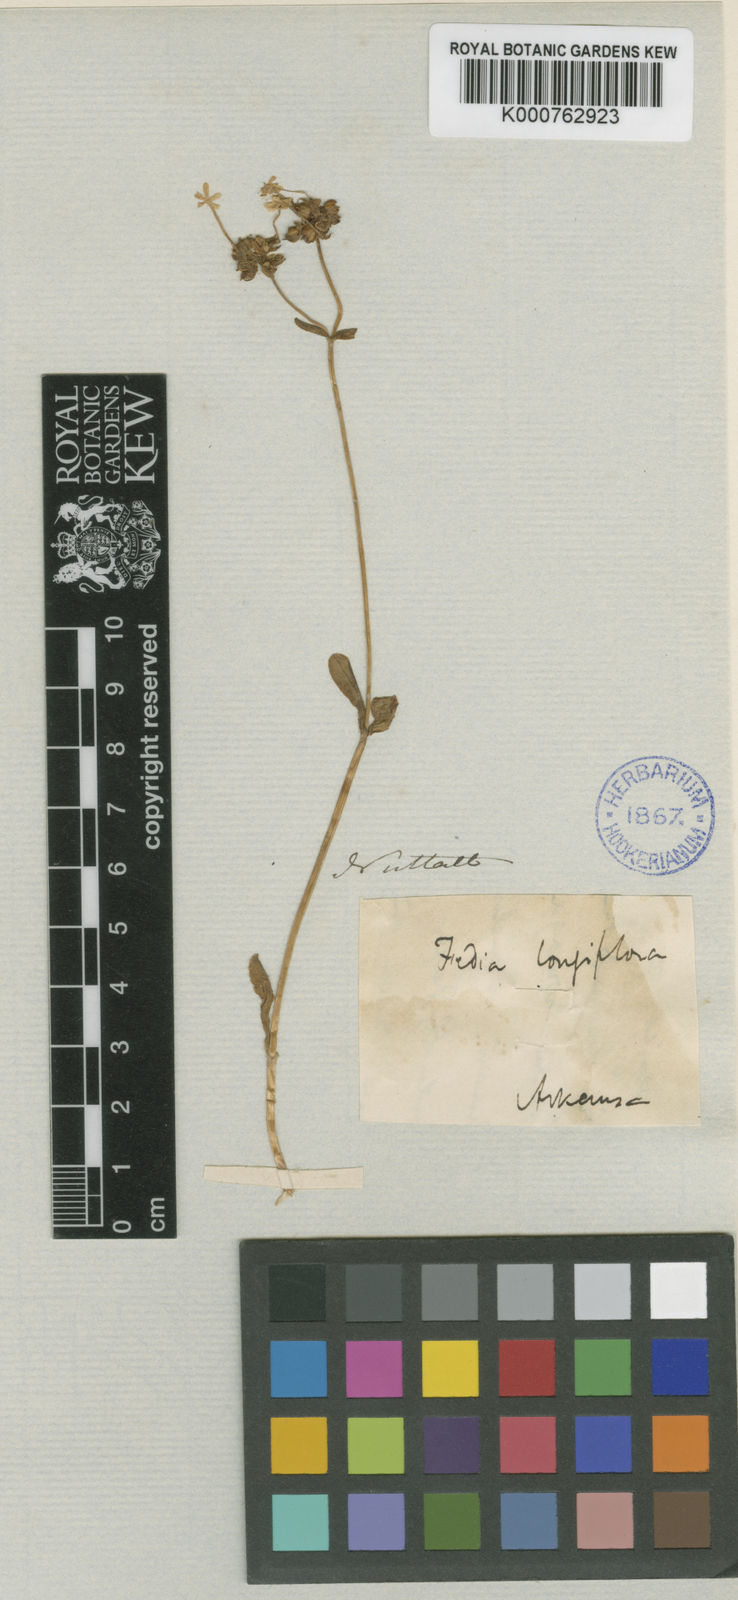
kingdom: Plantae
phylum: Tracheophyta
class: Magnoliopsida
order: Dipsacales
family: Caprifoliaceae
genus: Plectritis
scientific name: Plectritis longiflora
